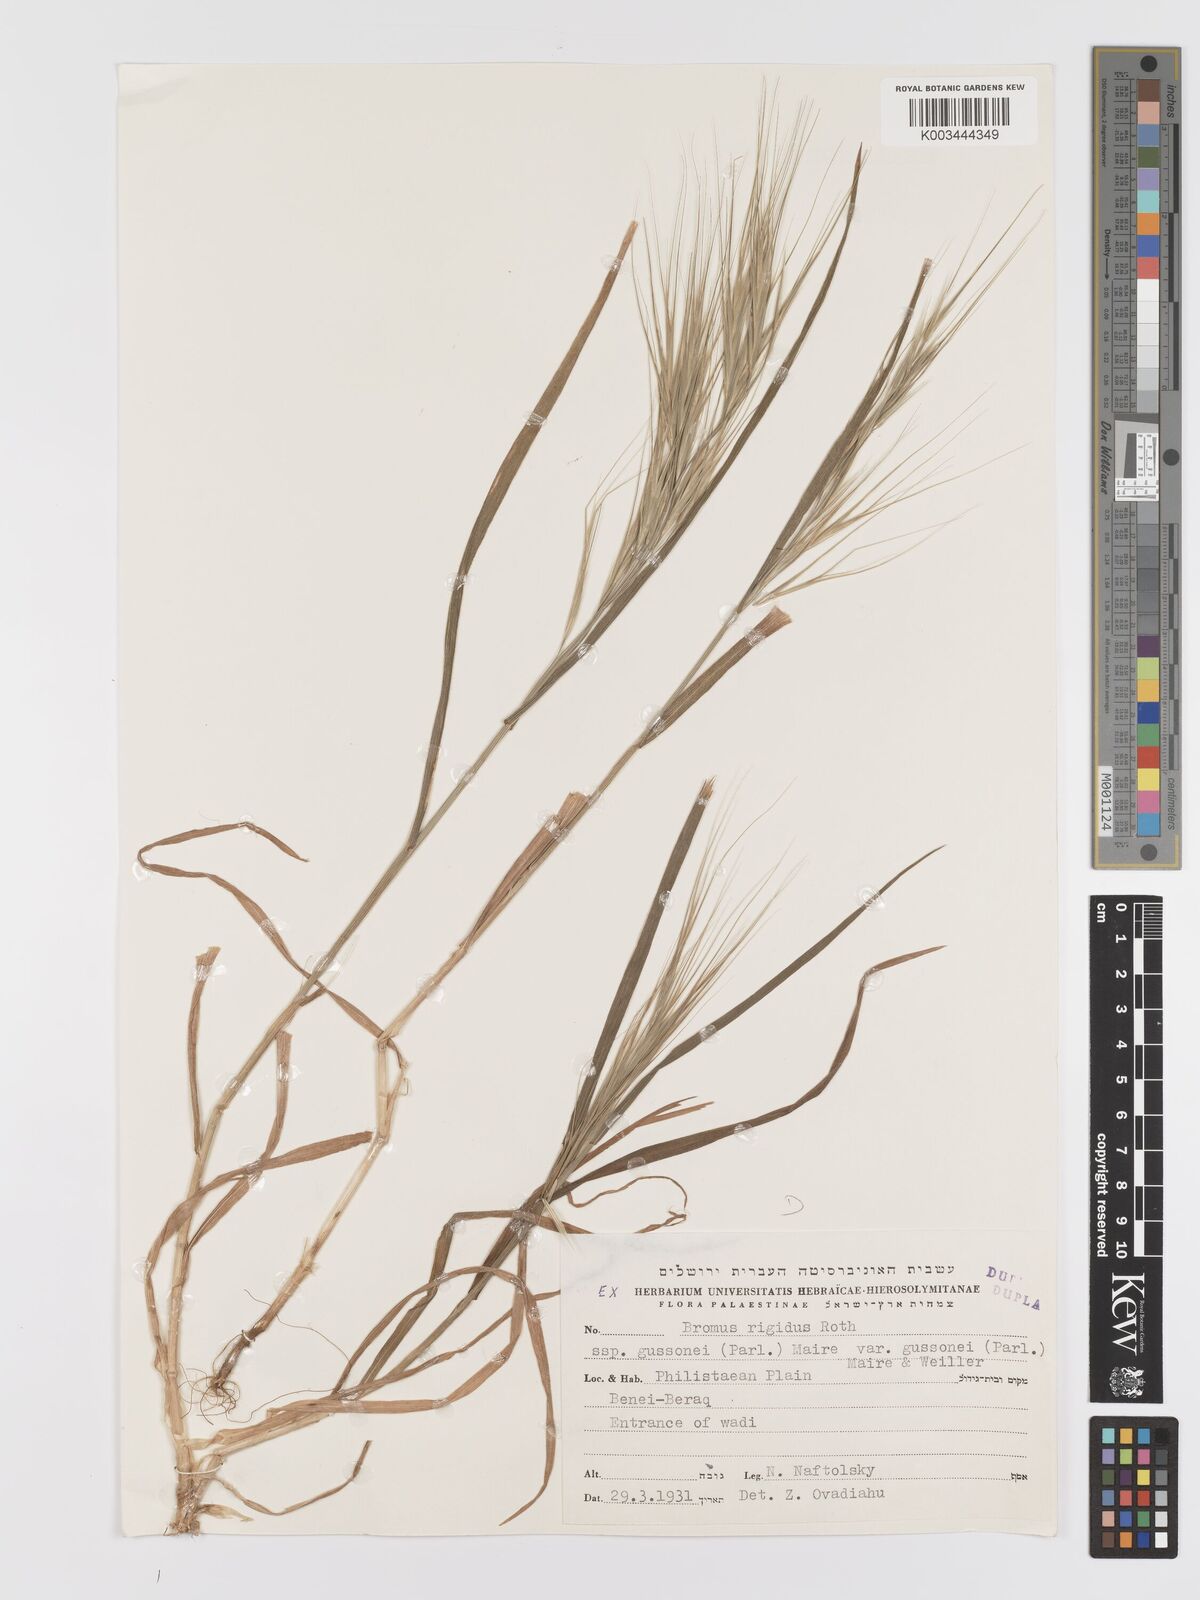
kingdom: Plantae
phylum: Tracheophyta
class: Liliopsida
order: Poales
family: Poaceae
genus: Bromus
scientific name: Bromus diandrus
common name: Ripgut brome
